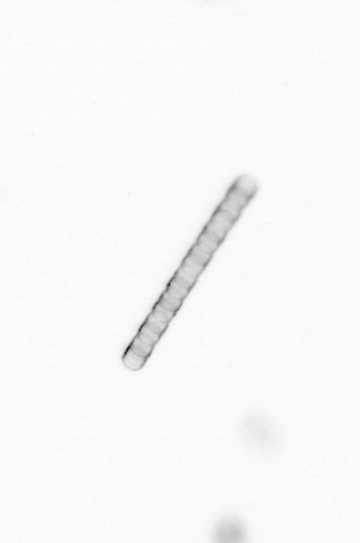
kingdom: Chromista
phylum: Ochrophyta
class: Bacillariophyceae
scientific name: Bacillariophyceae
